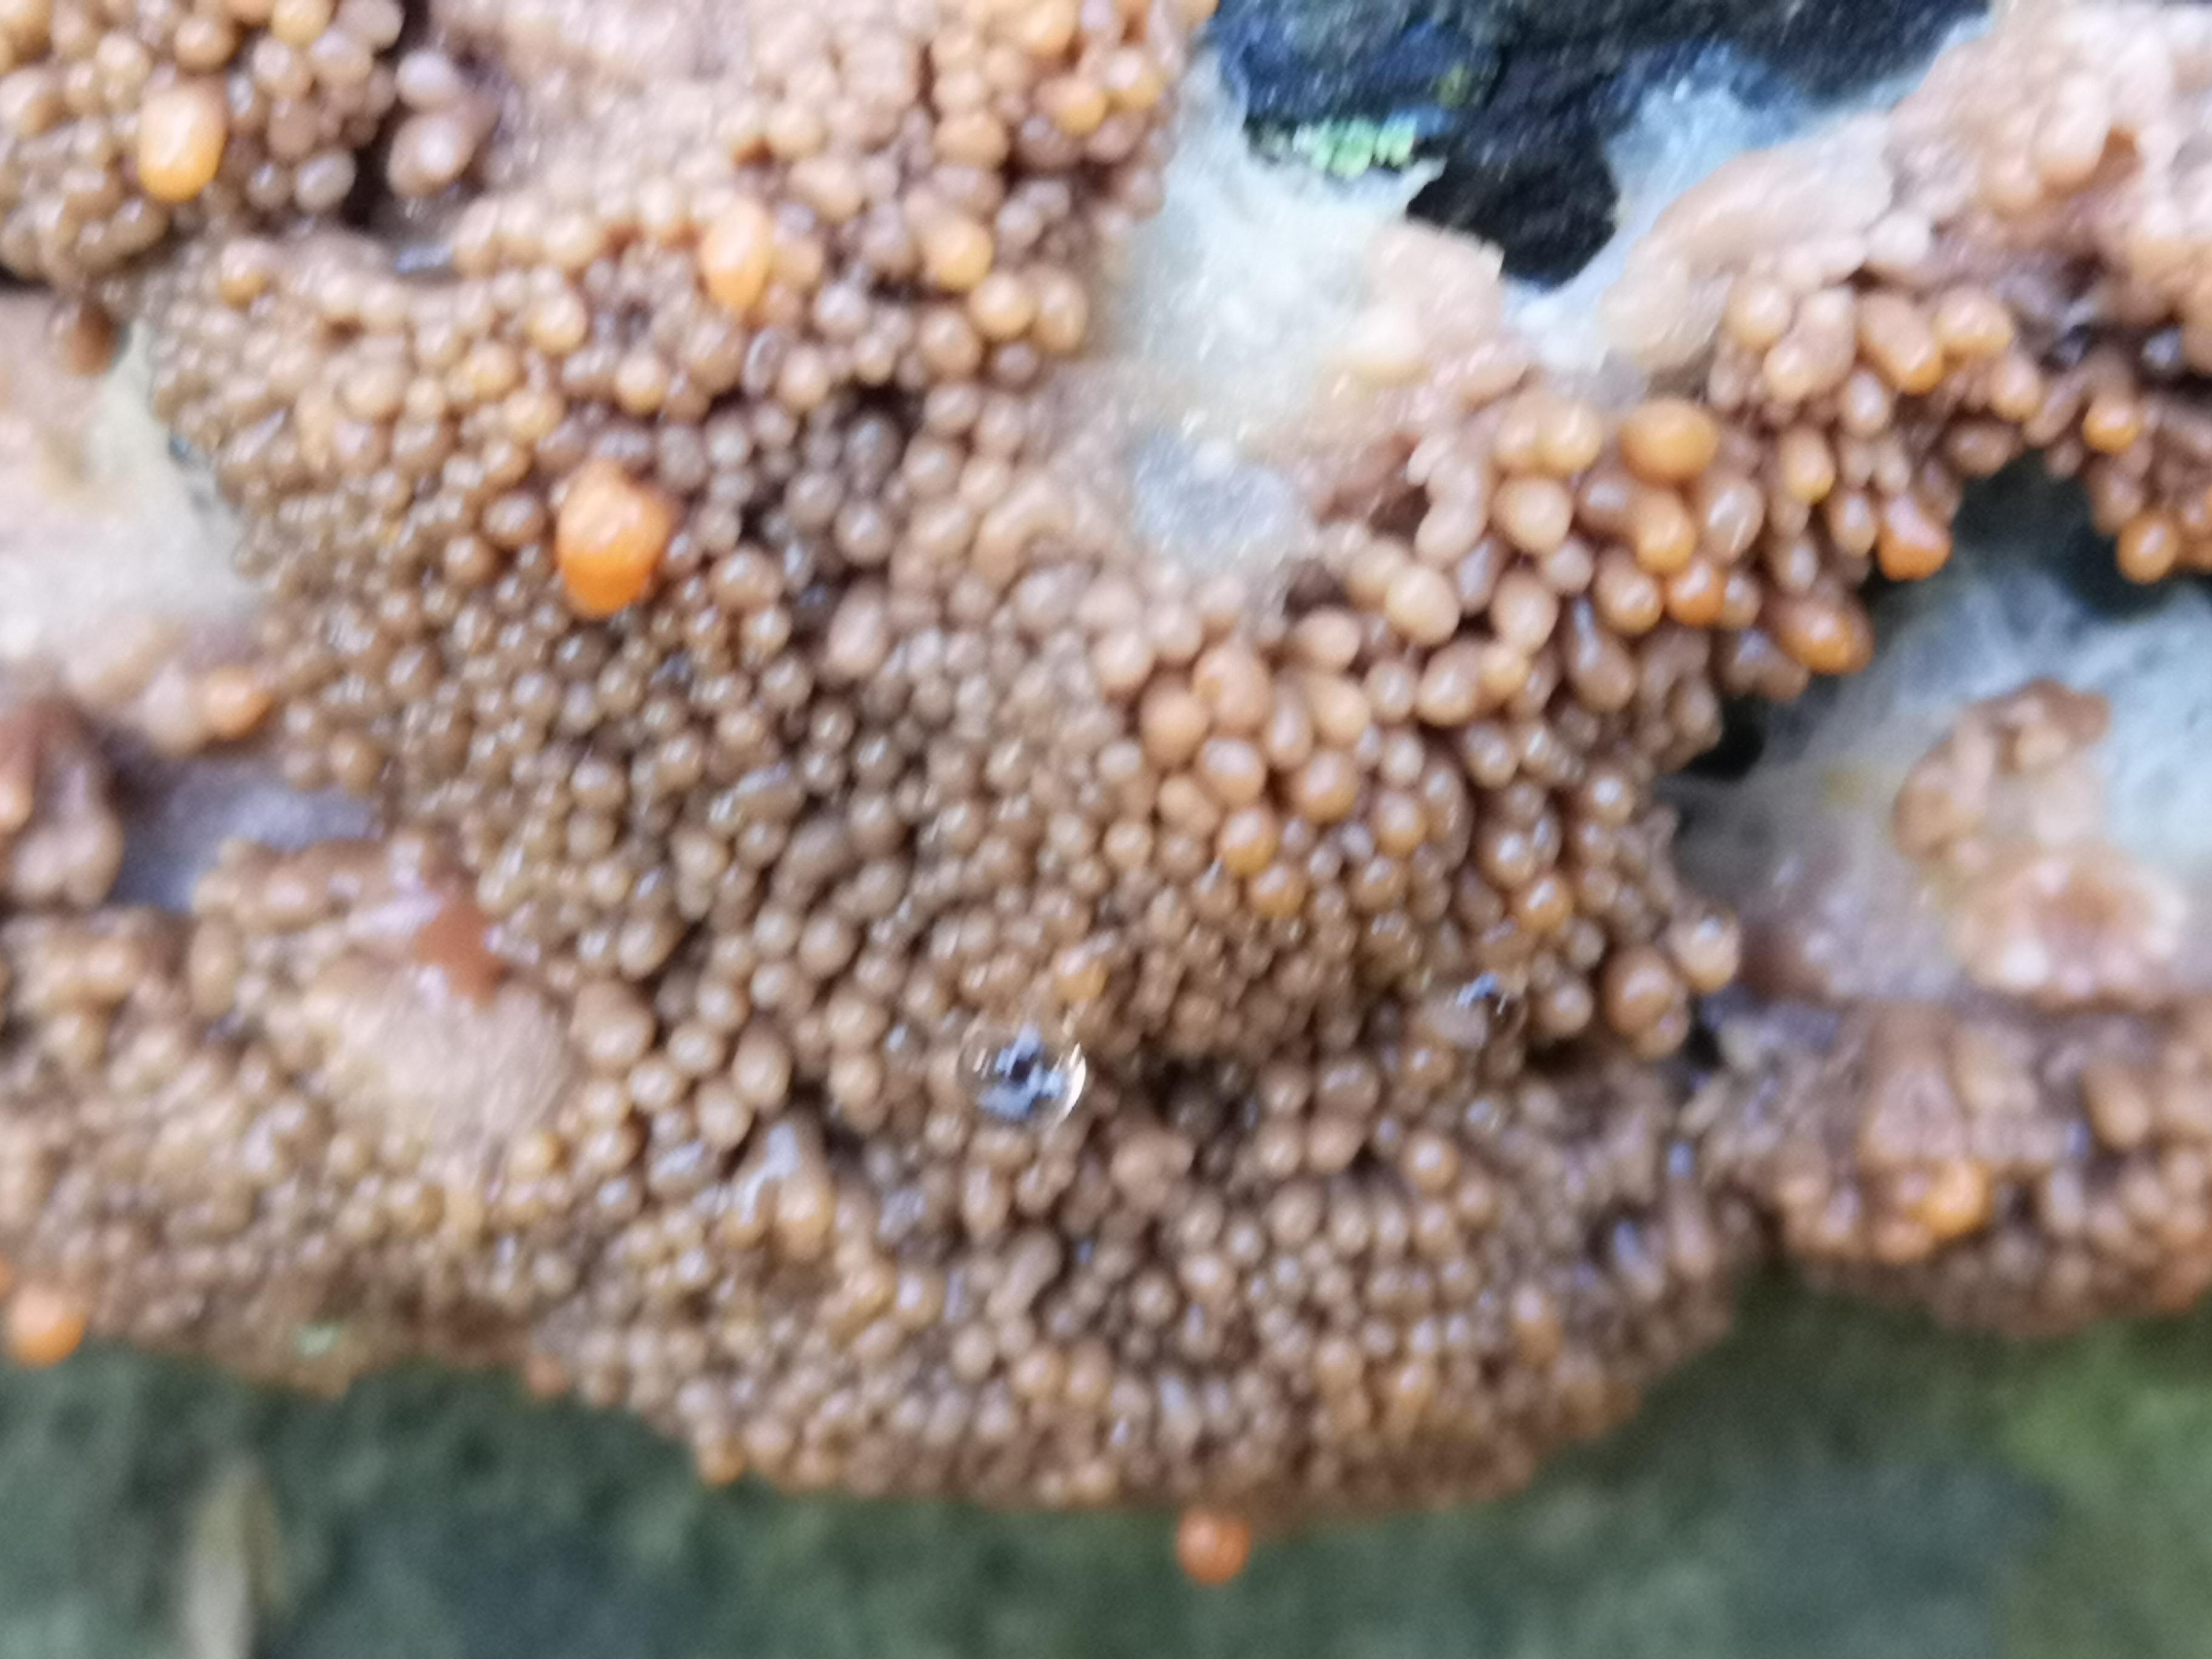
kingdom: Protozoa
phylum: Mycetozoa
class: Myxomycetes
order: Cribrariales
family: Tubiferaceae
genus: Tubifera
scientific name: Tubifera ferruginosa
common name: kanel-støvrør
